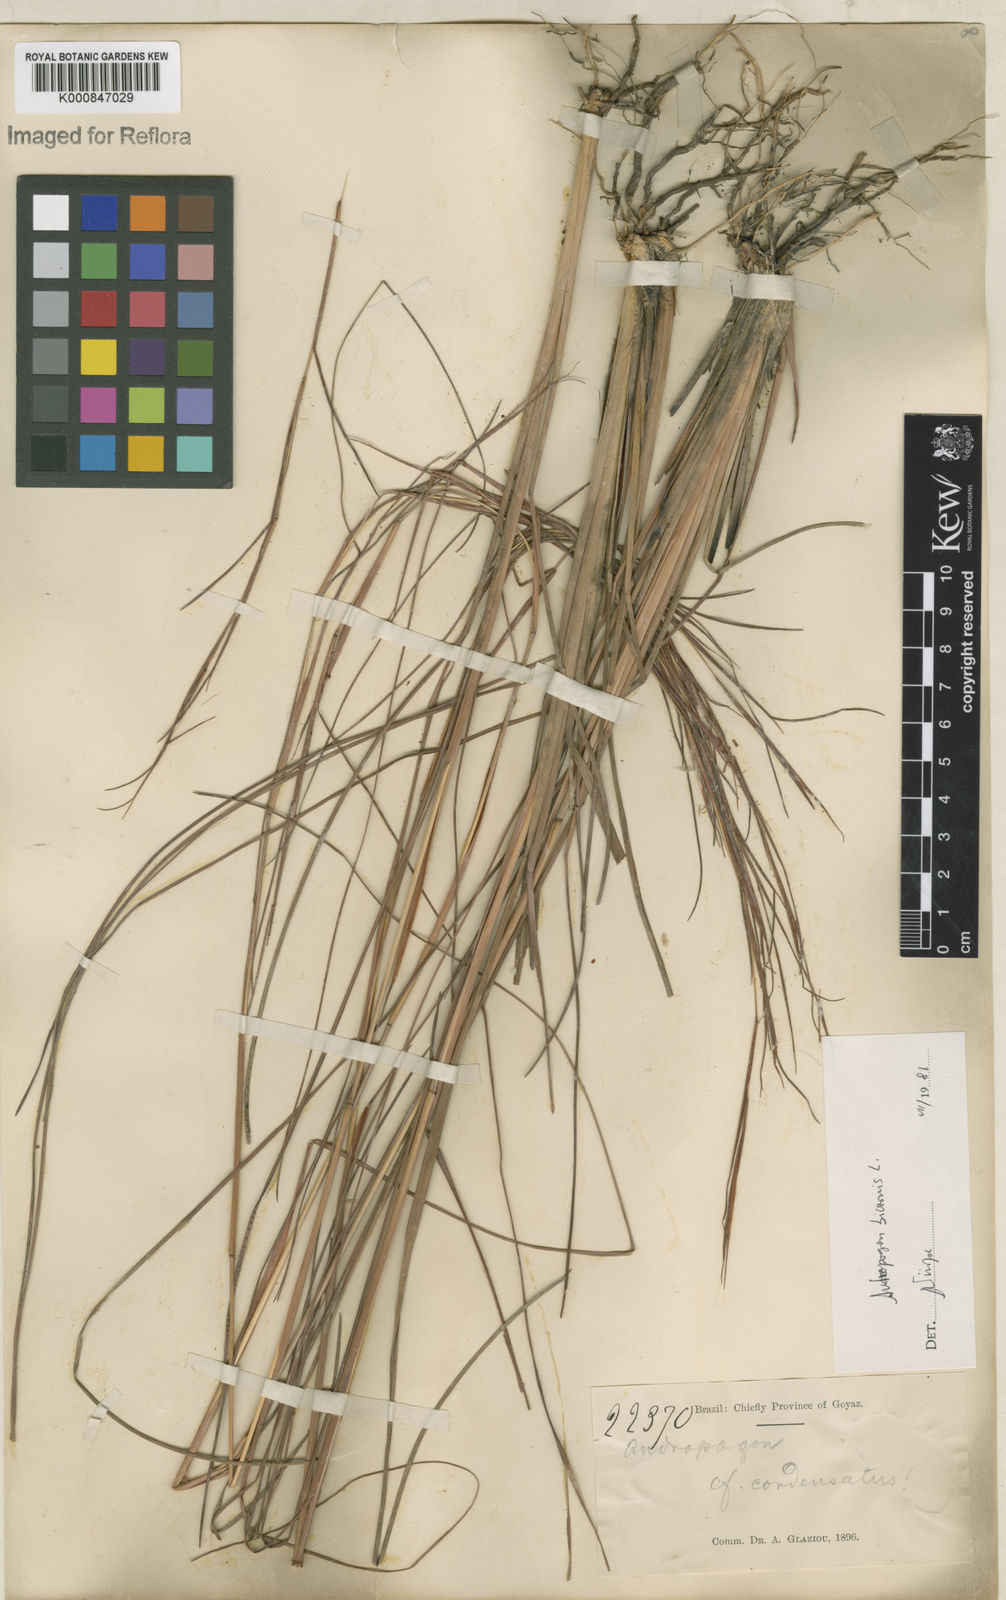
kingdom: Plantae
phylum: Tracheophyta
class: Liliopsida
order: Poales
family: Poaceae
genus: Andropogon
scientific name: Andropogon
